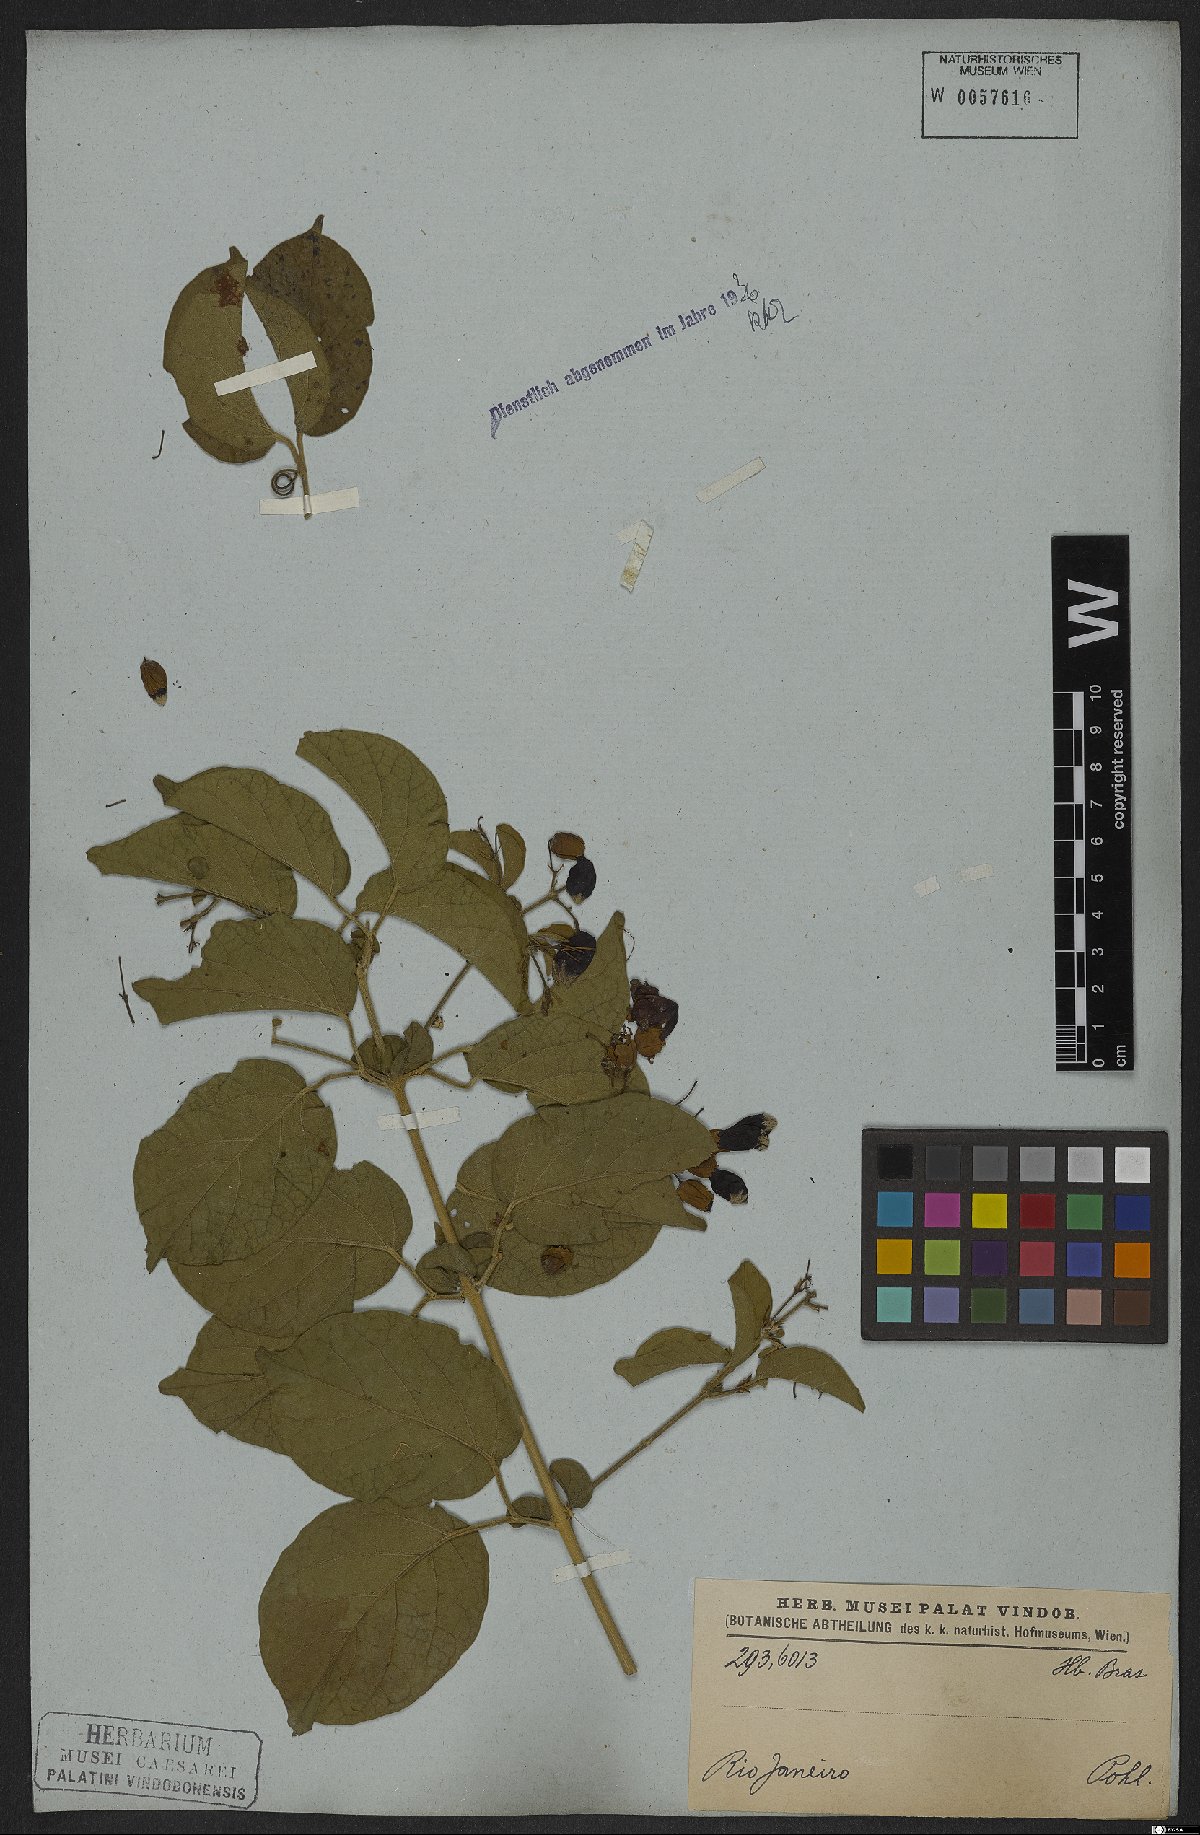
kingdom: Plantae
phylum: Tracheophyta
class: Magnoliopsida
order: Lamiales
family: Bignoniaceae
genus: Fridericia
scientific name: Fridericia leucopogon
